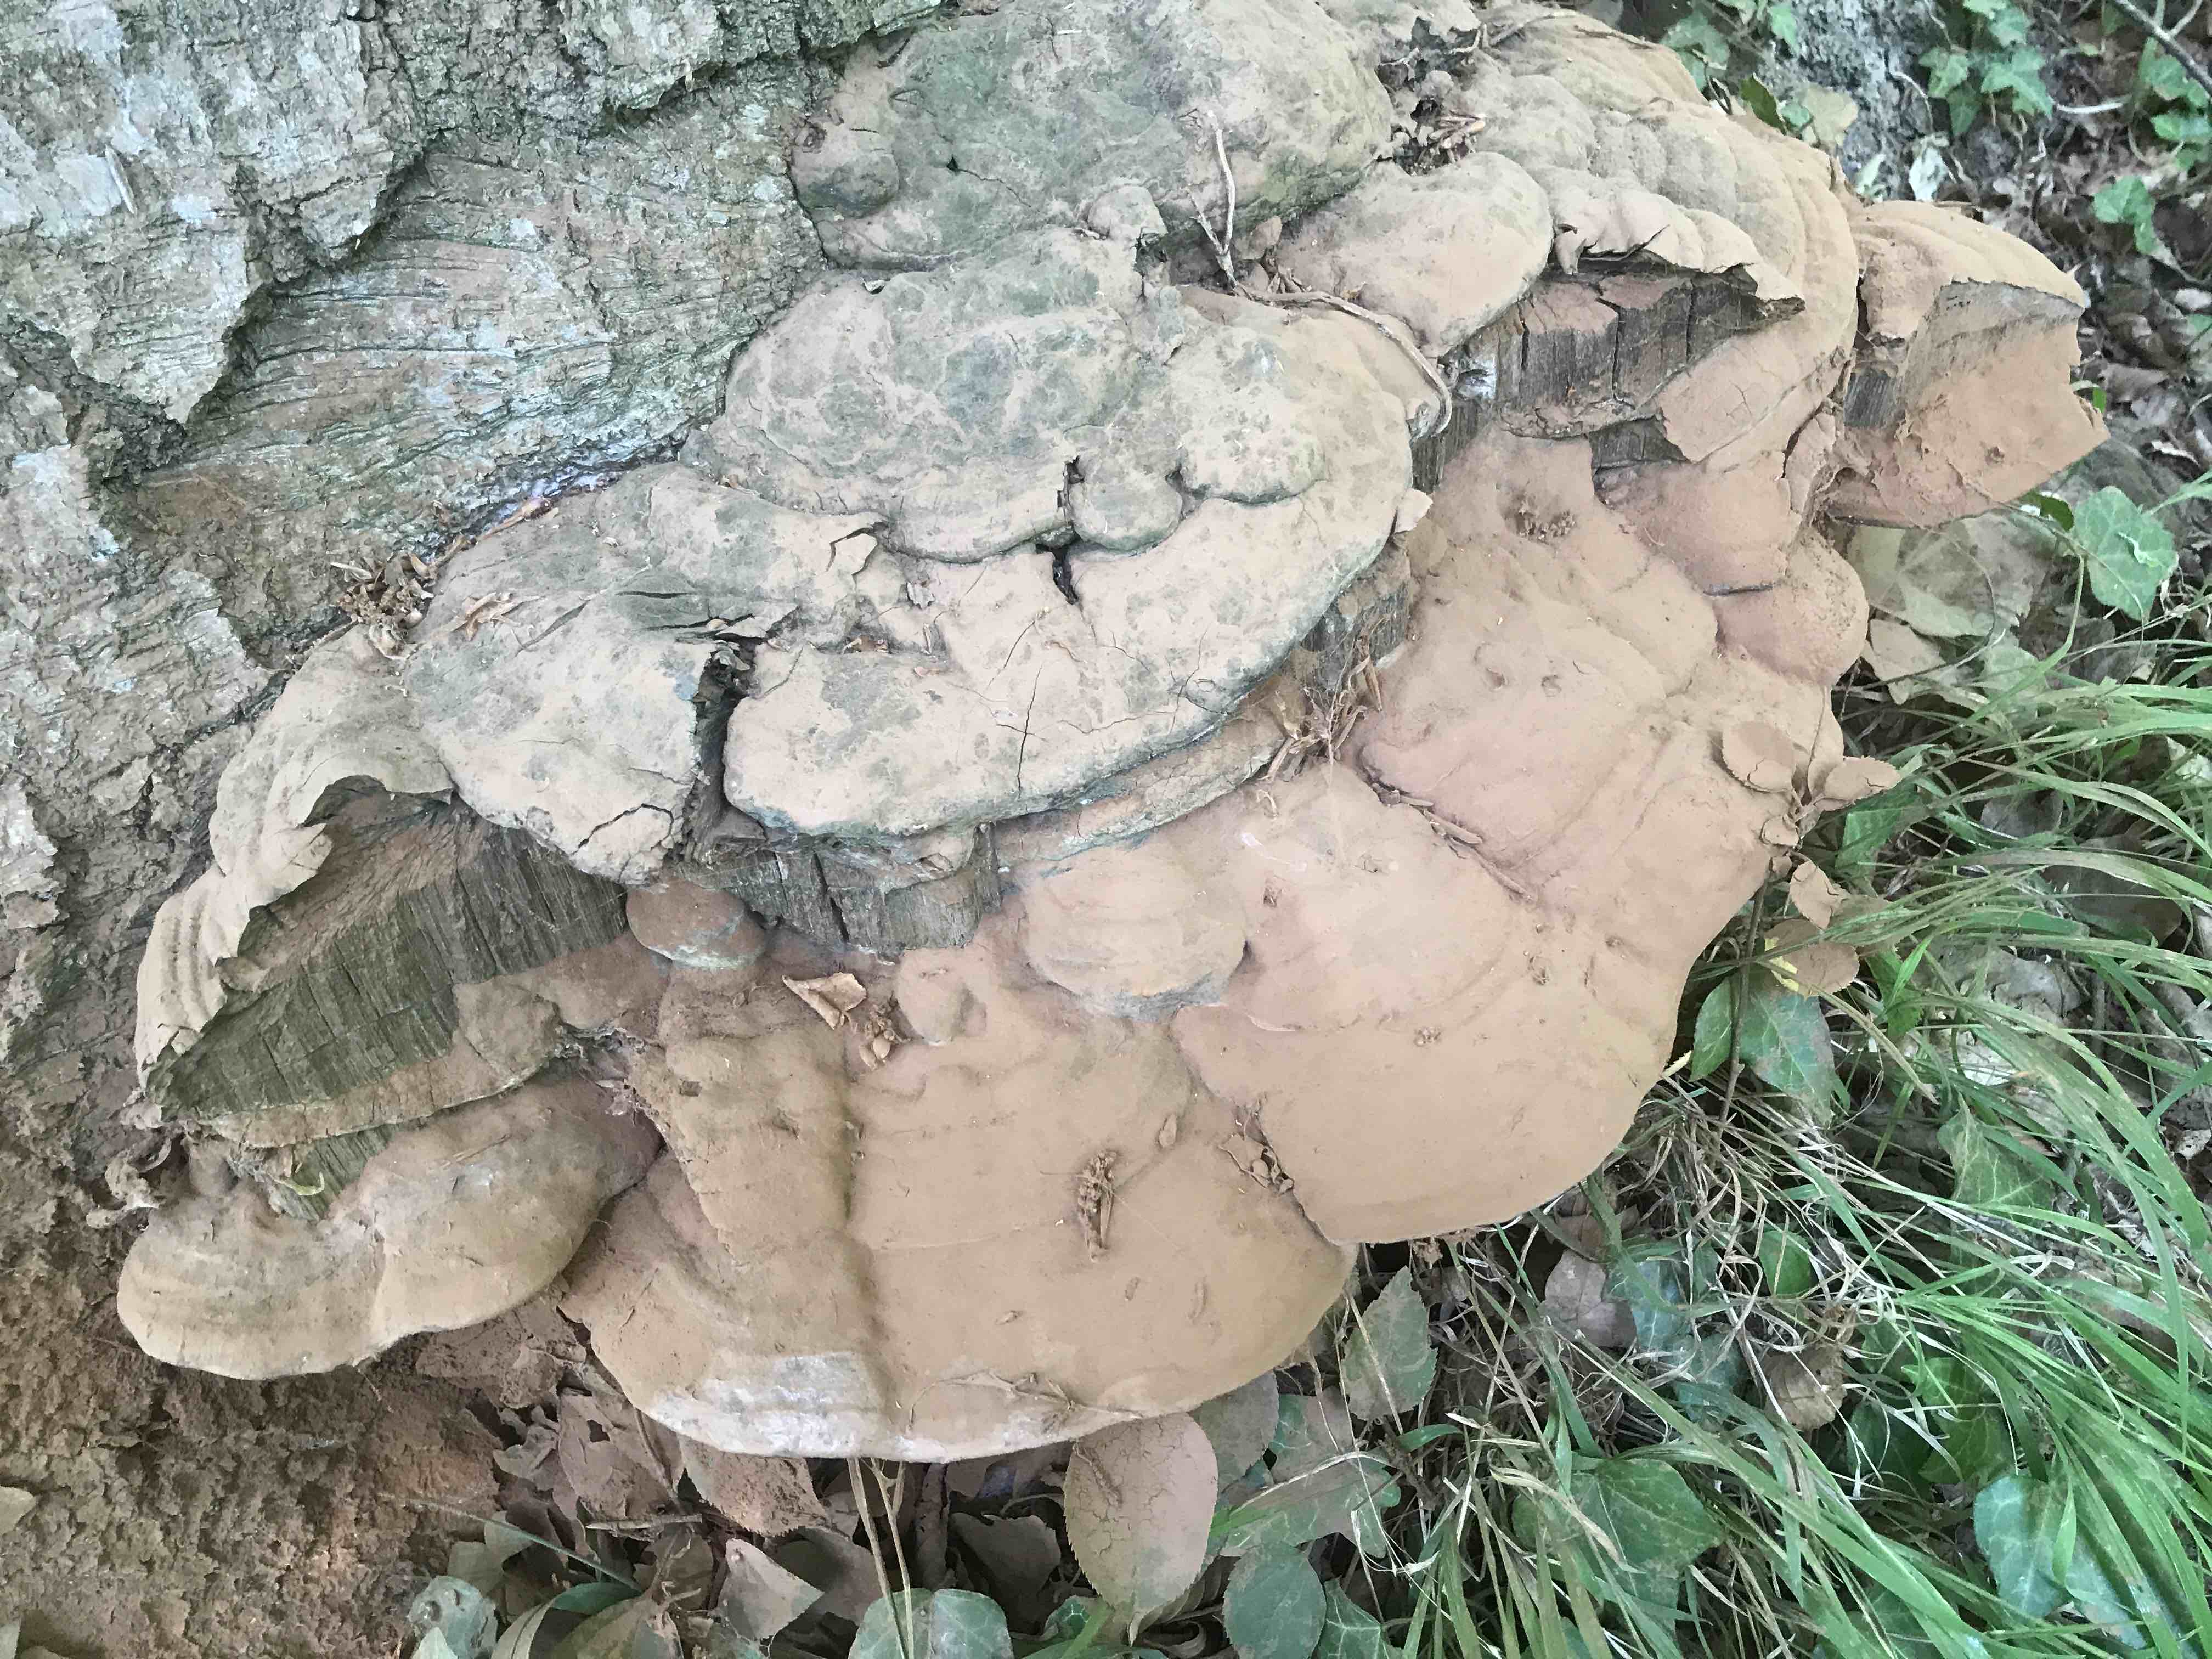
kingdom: Fungi
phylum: Basidiomycota
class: Agaricomycetes
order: Polyporales
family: Polyporaceae
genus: Ganoderma
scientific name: Ganoderma pfeifferi
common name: kobberrød lakporesvamp
